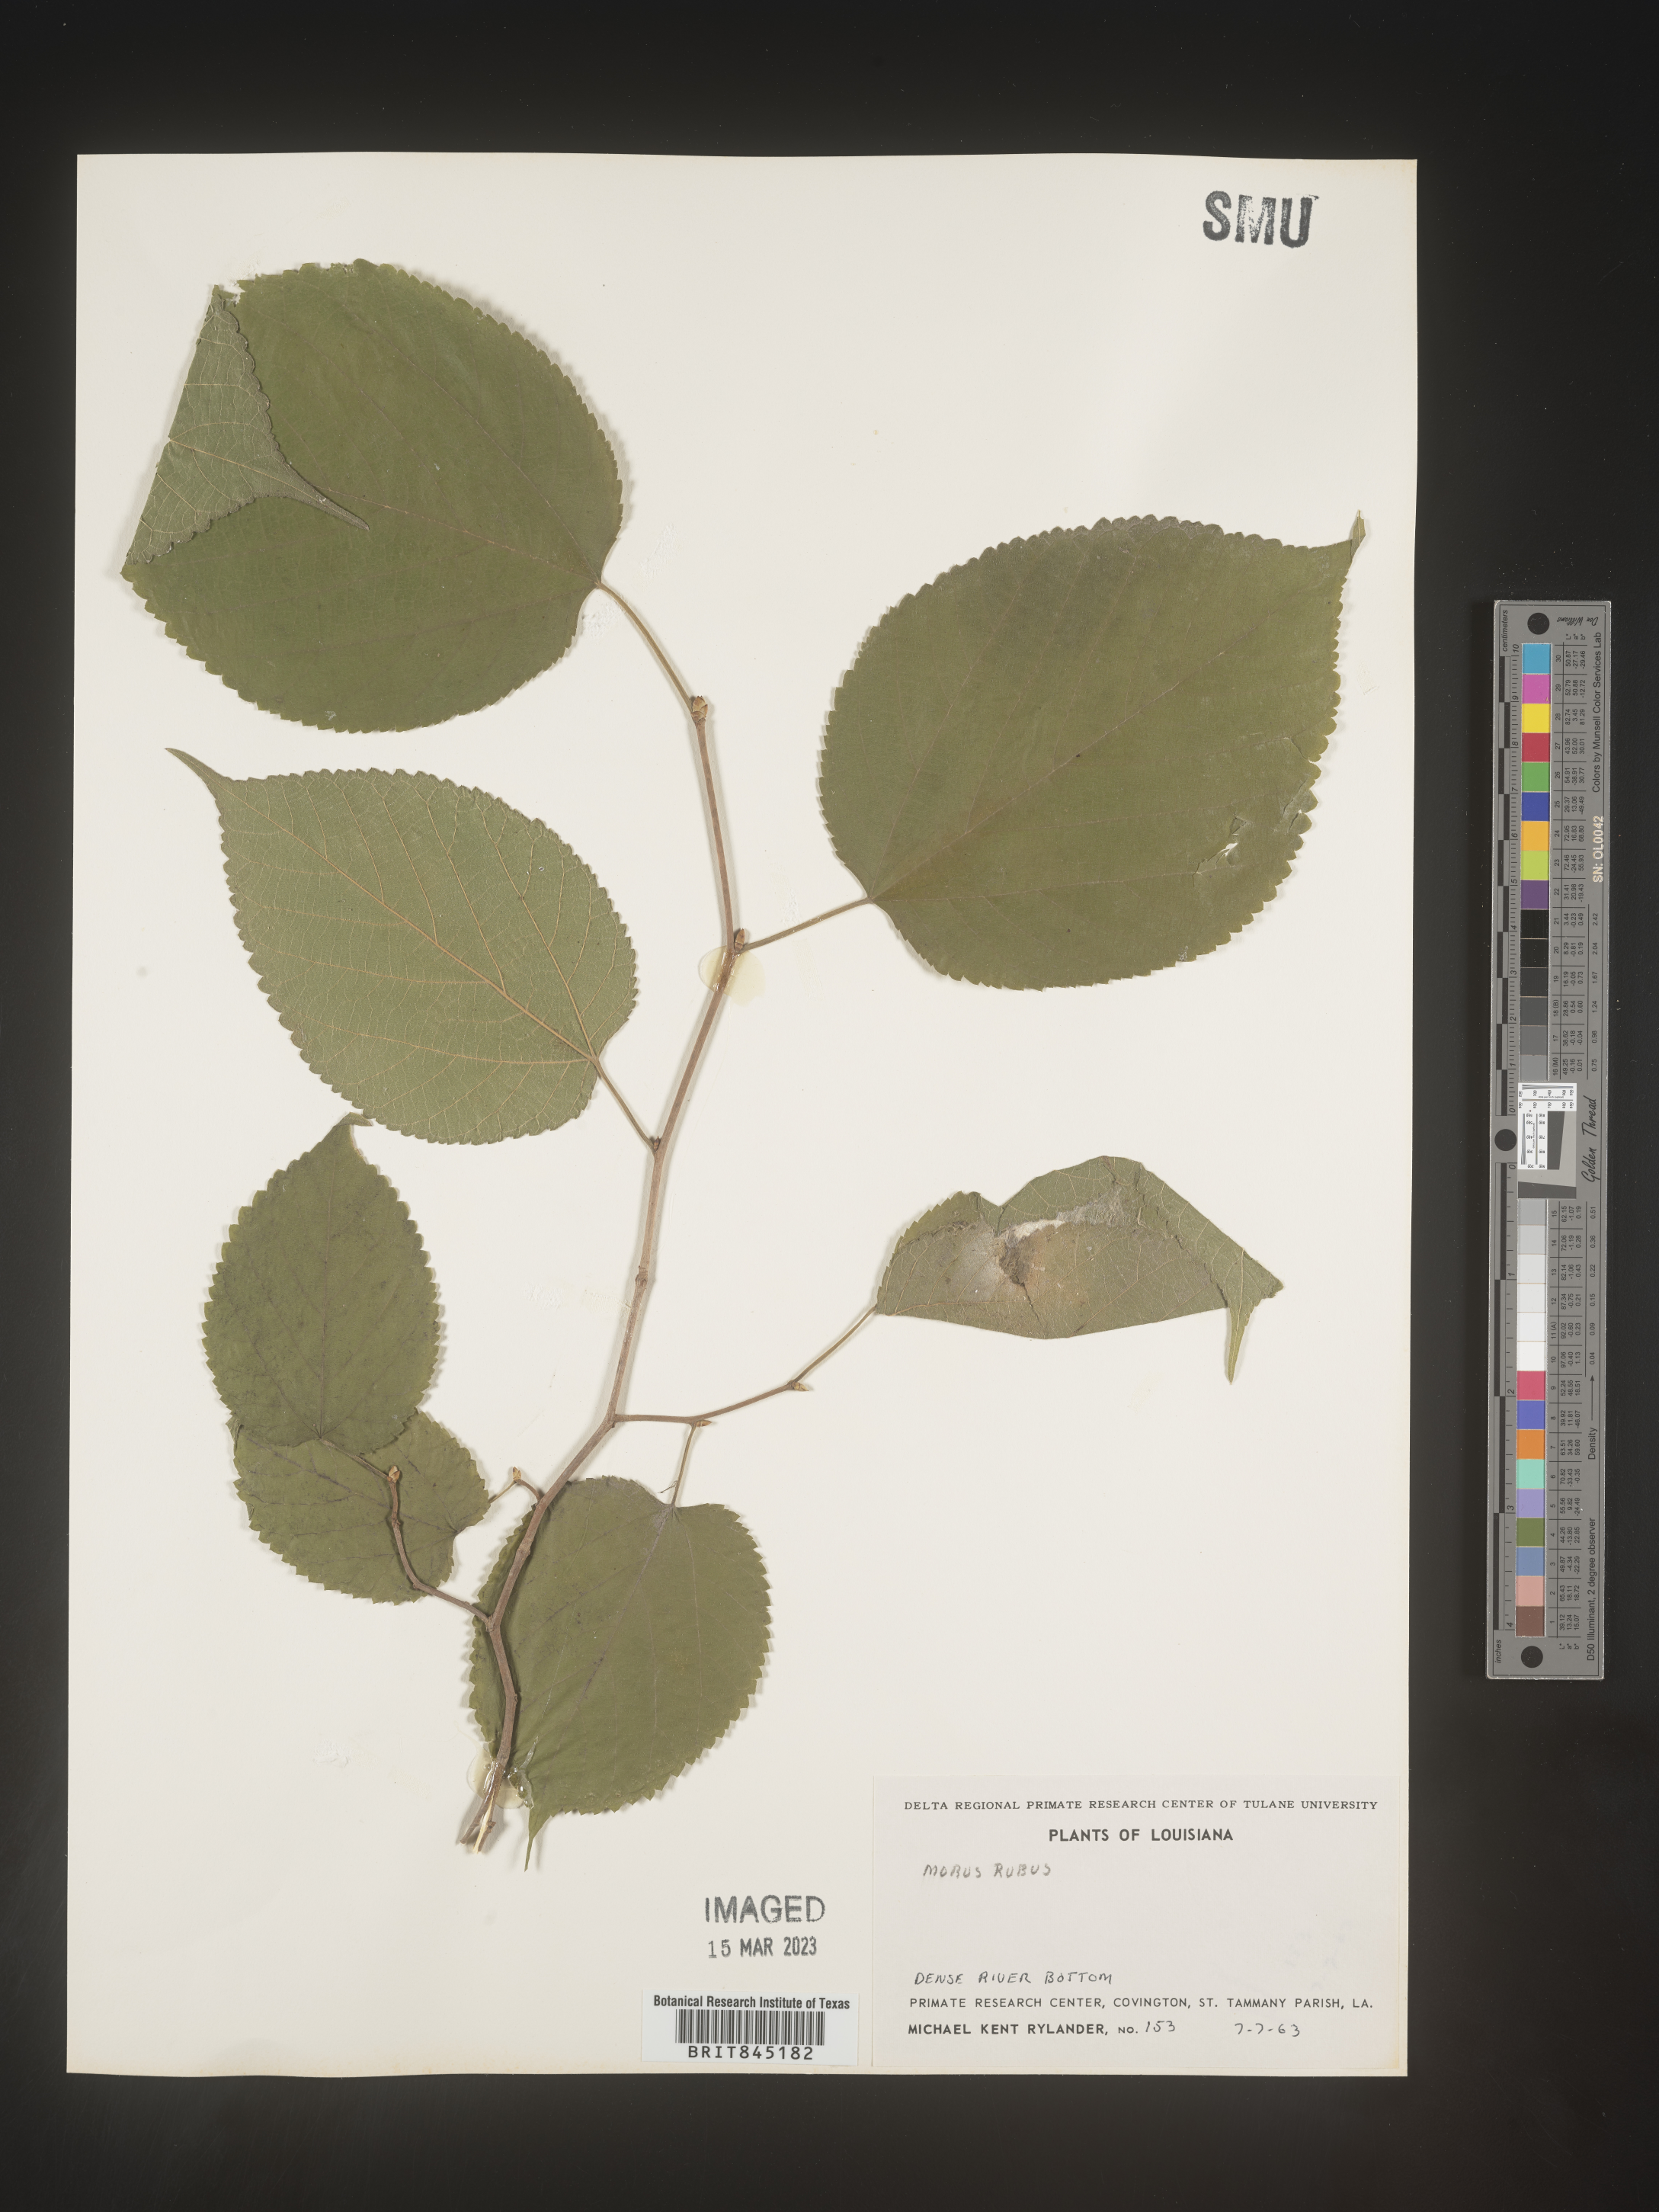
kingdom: Plantae
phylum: Tracheophyta
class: Magnoliopsida
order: Rosales
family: Moraceae
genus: Morus
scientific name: Morus rubra
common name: Red mulberry
